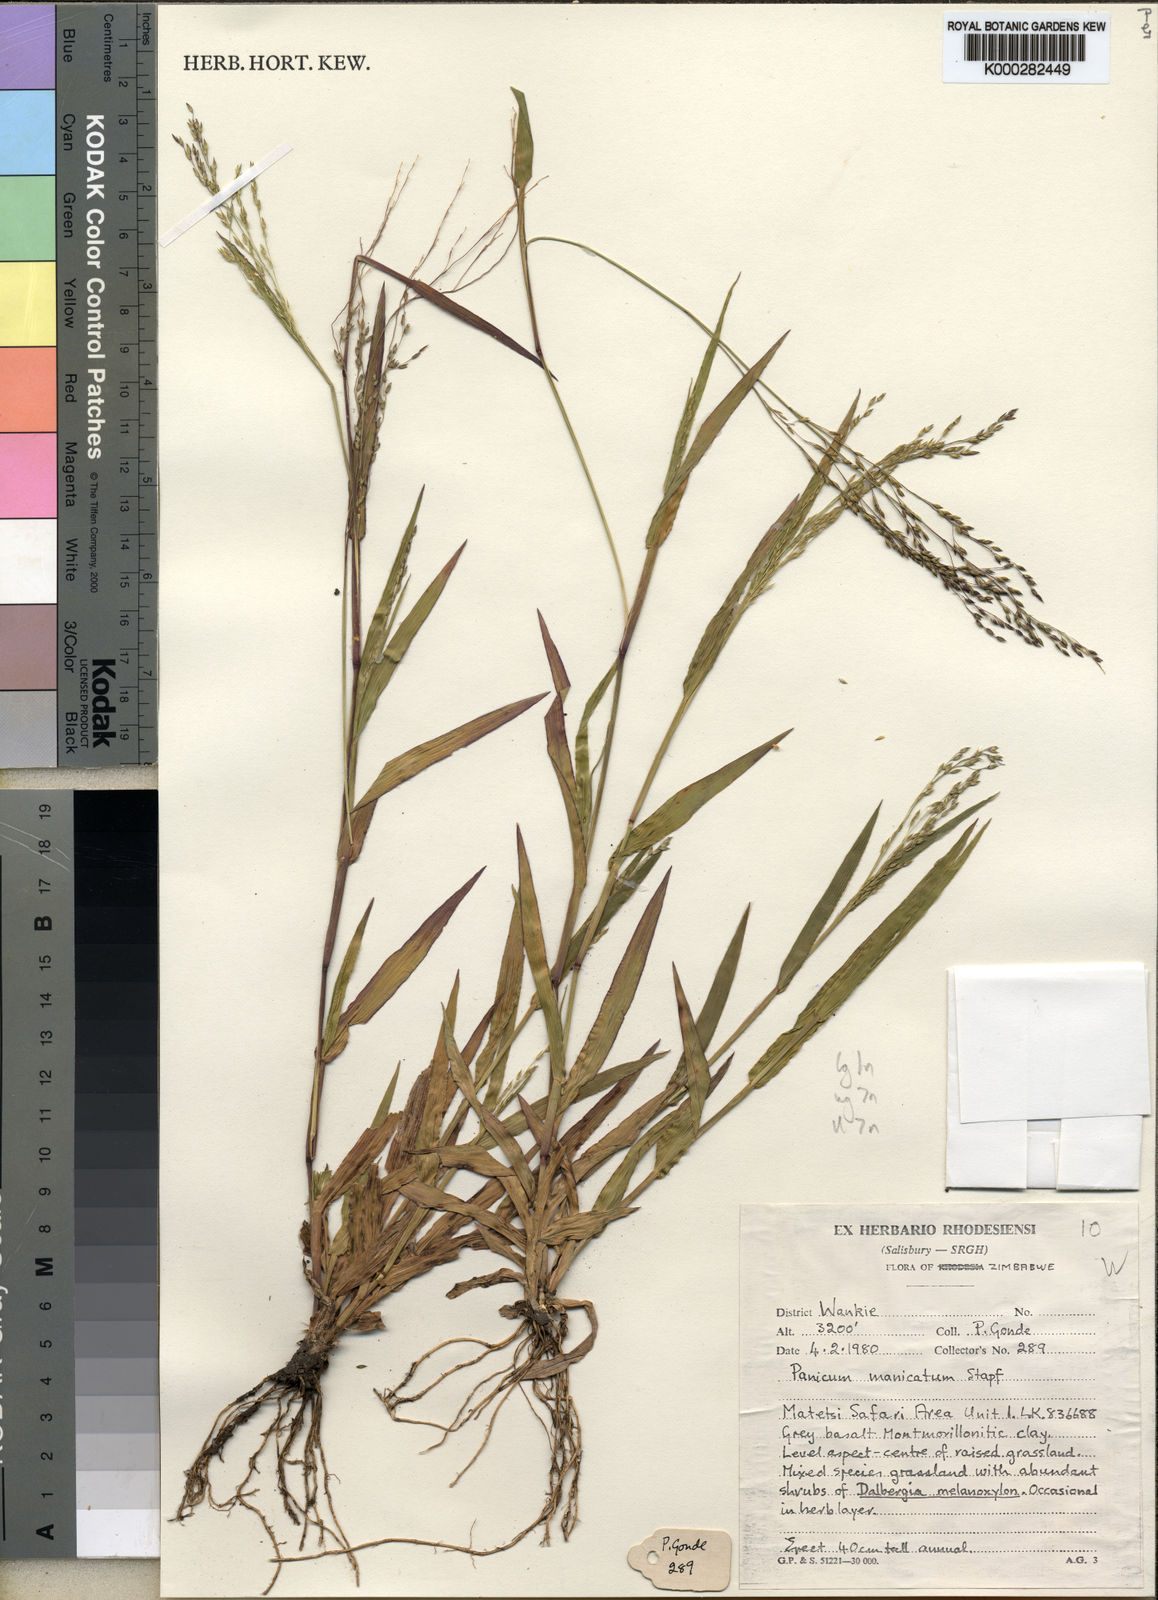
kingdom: Plantae
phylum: Tracheophyta
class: Liliopsida
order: Poales
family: Poaceae
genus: Panicum
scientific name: Panicum zambesiense
